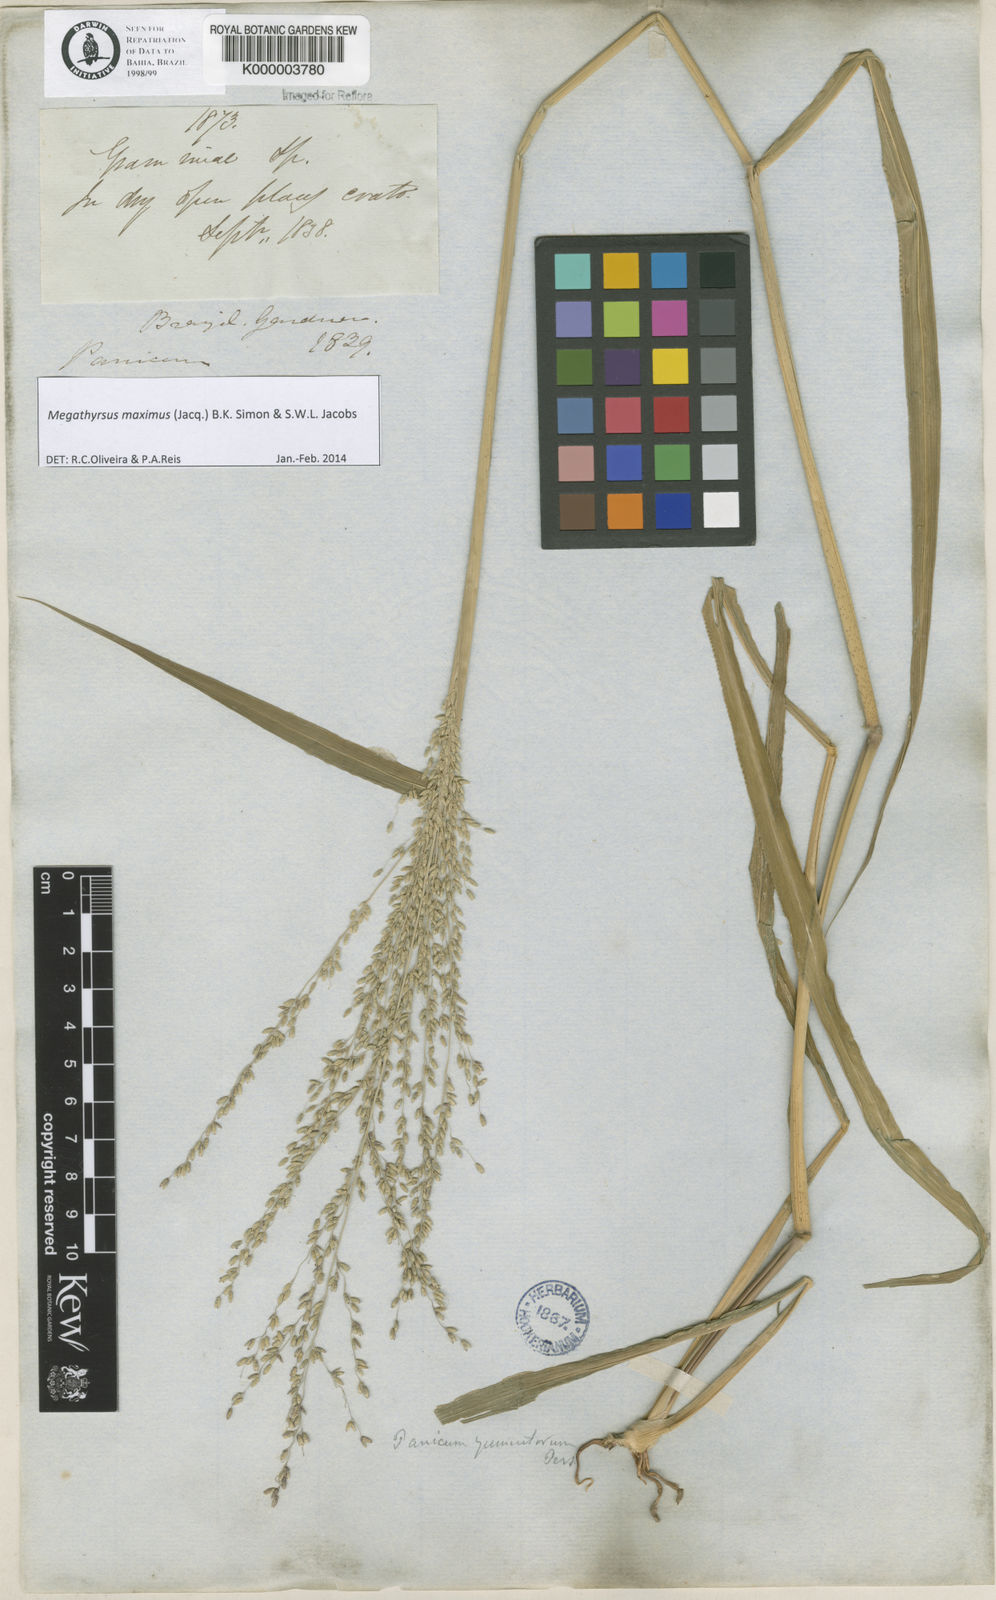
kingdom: Plantae
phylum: Tracheophyta
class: Liliopsida
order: Poales
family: Poaceae
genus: Megathyrsus
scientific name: Megathyrsus maximus
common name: Guineagrass
